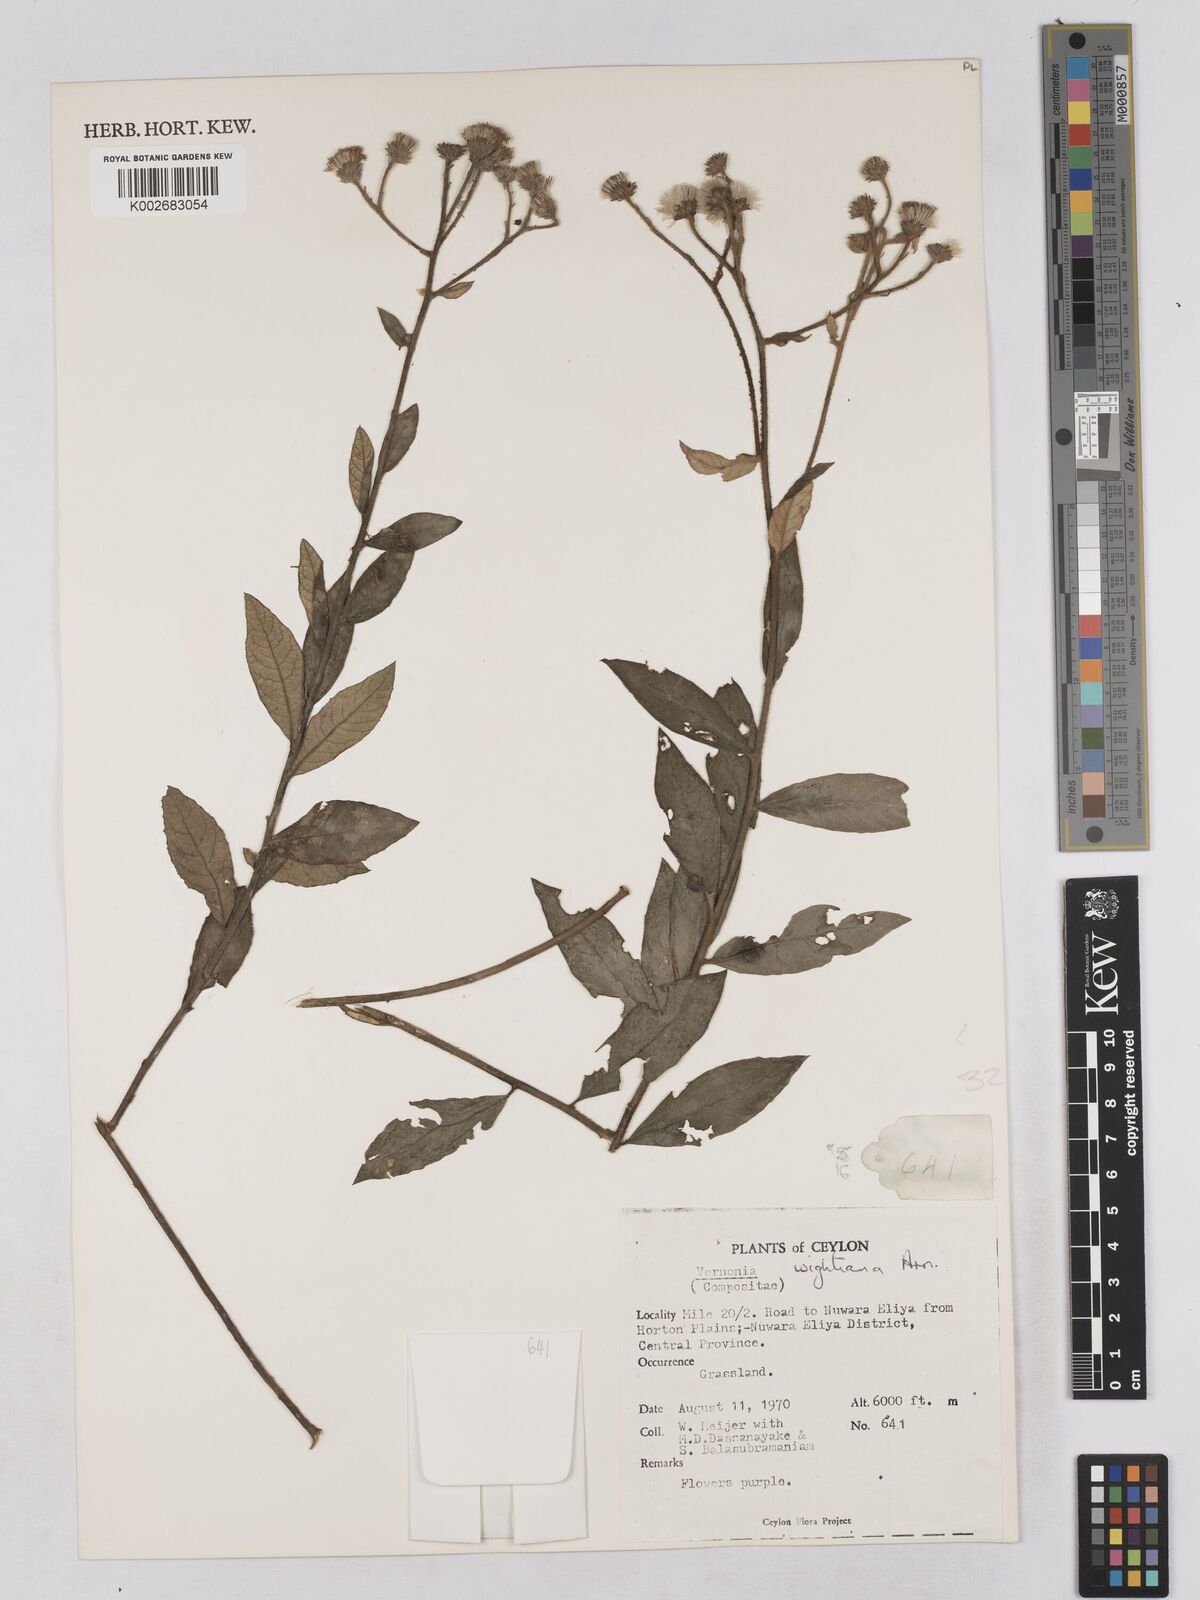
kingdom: Plantae
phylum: Tracheophyta
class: Magnoliopsida
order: Asterales
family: Asteraceae
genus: Uniyala
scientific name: Uniyala wightiana
